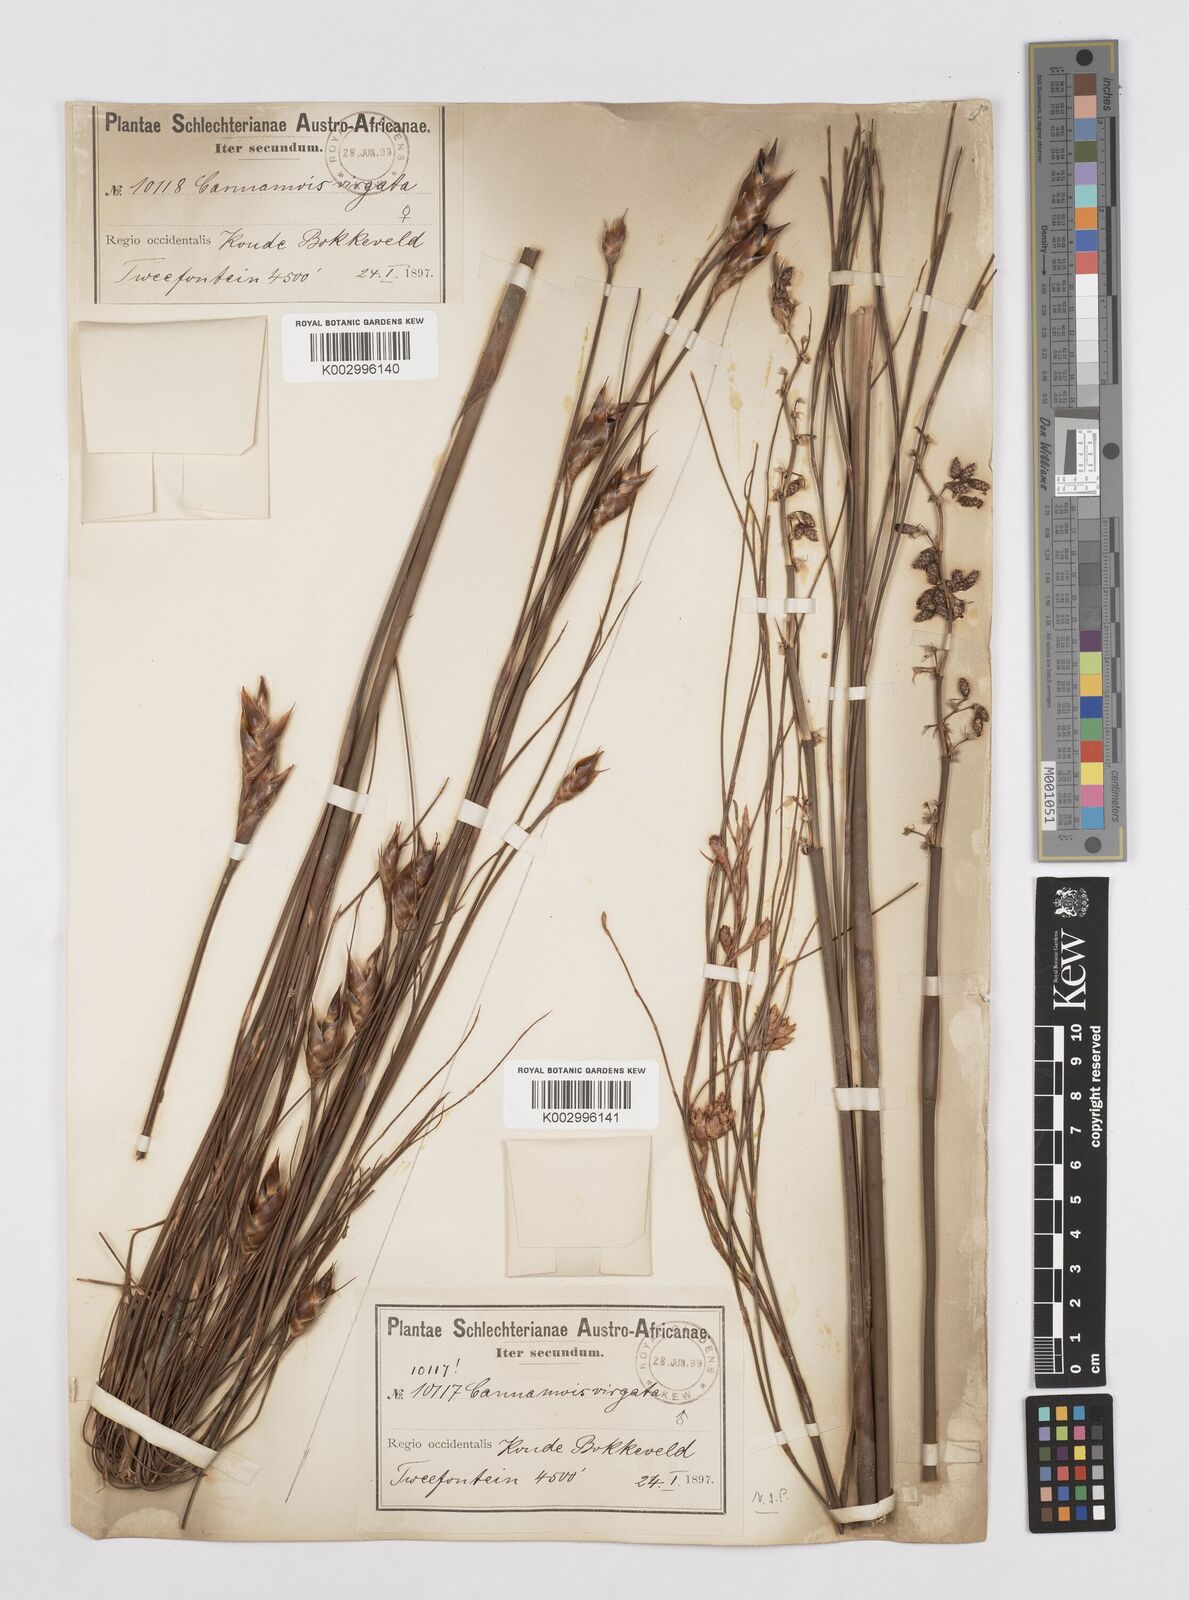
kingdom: Plantae
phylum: Tracheophyta
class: Liliopsida
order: Poales
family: Restionaceae
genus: Cannomois
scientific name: Cannomois virgata
